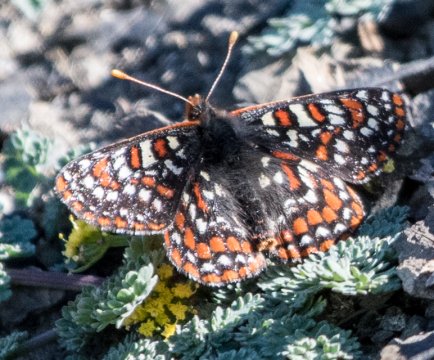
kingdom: Animalia
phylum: Arthropoda
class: Insecta
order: Lepidoptera
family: Nymphalidae
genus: Occidryas
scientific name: Occidryas editha
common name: Edith's Checkerspot
